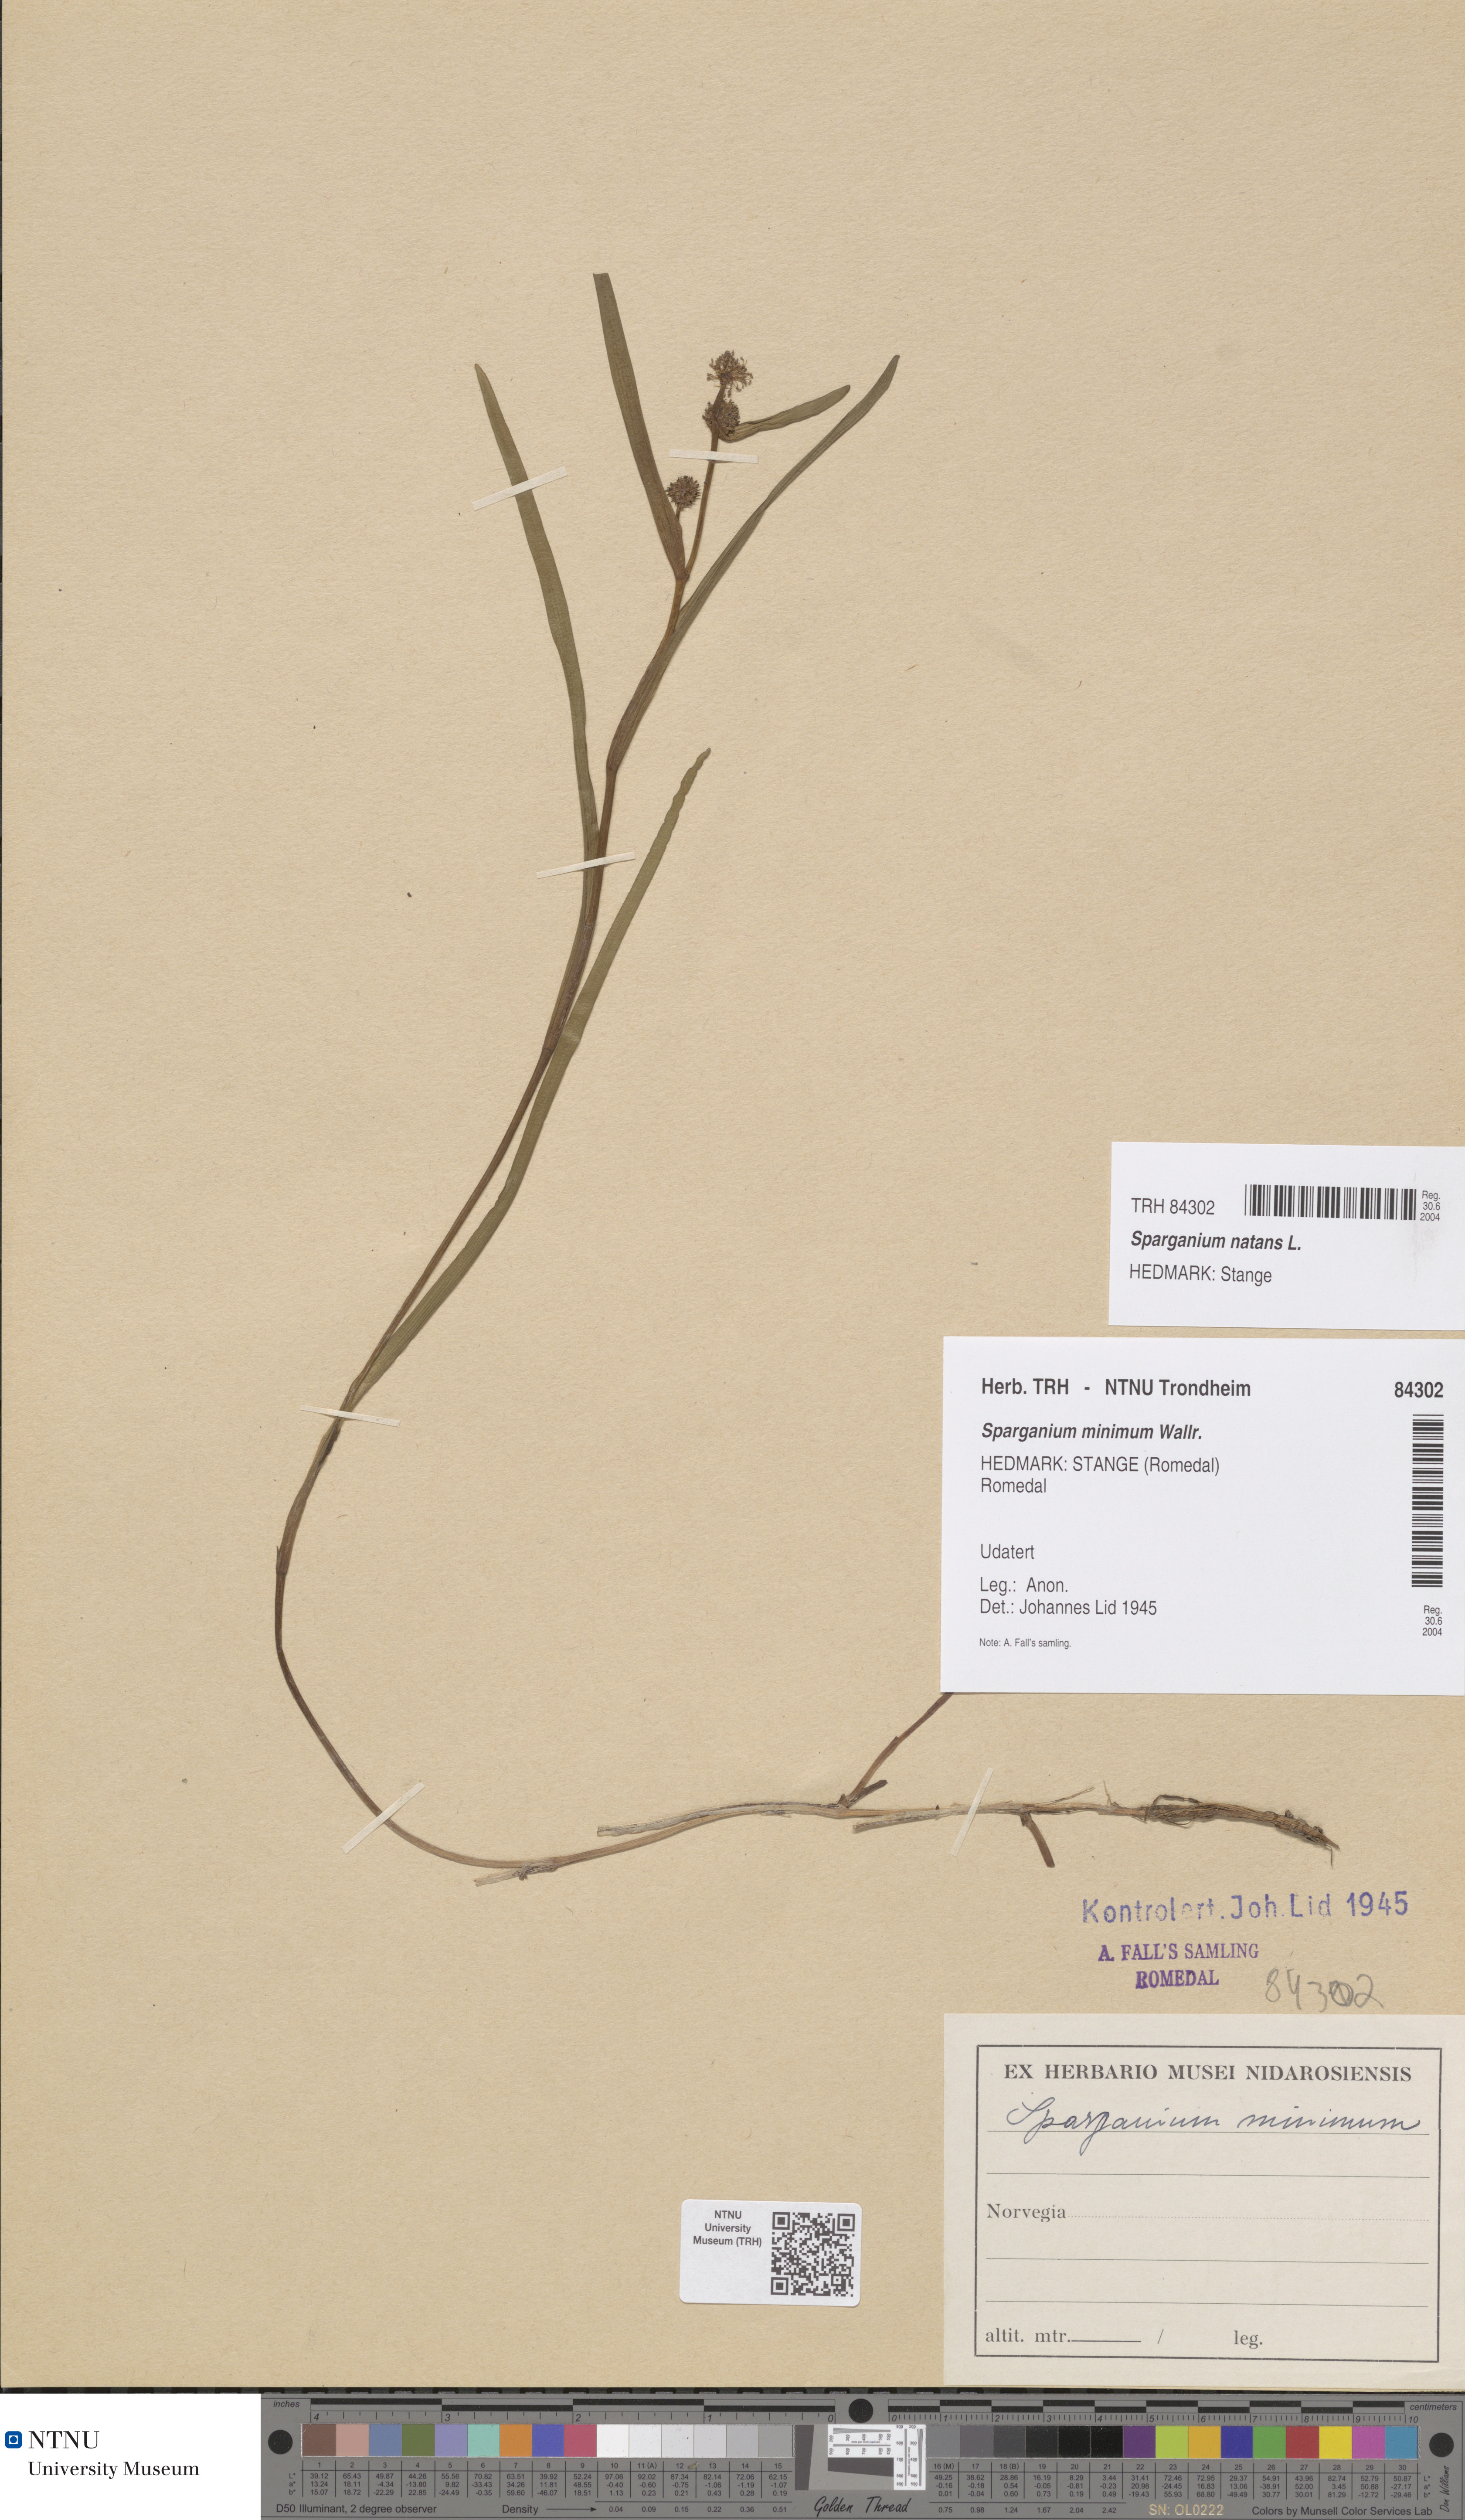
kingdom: Plantae
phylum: Tracheophyta
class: Liliopsida
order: Poales
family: Typhaceae
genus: Sparganium
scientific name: Sparganium natans
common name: Least bur-reed
